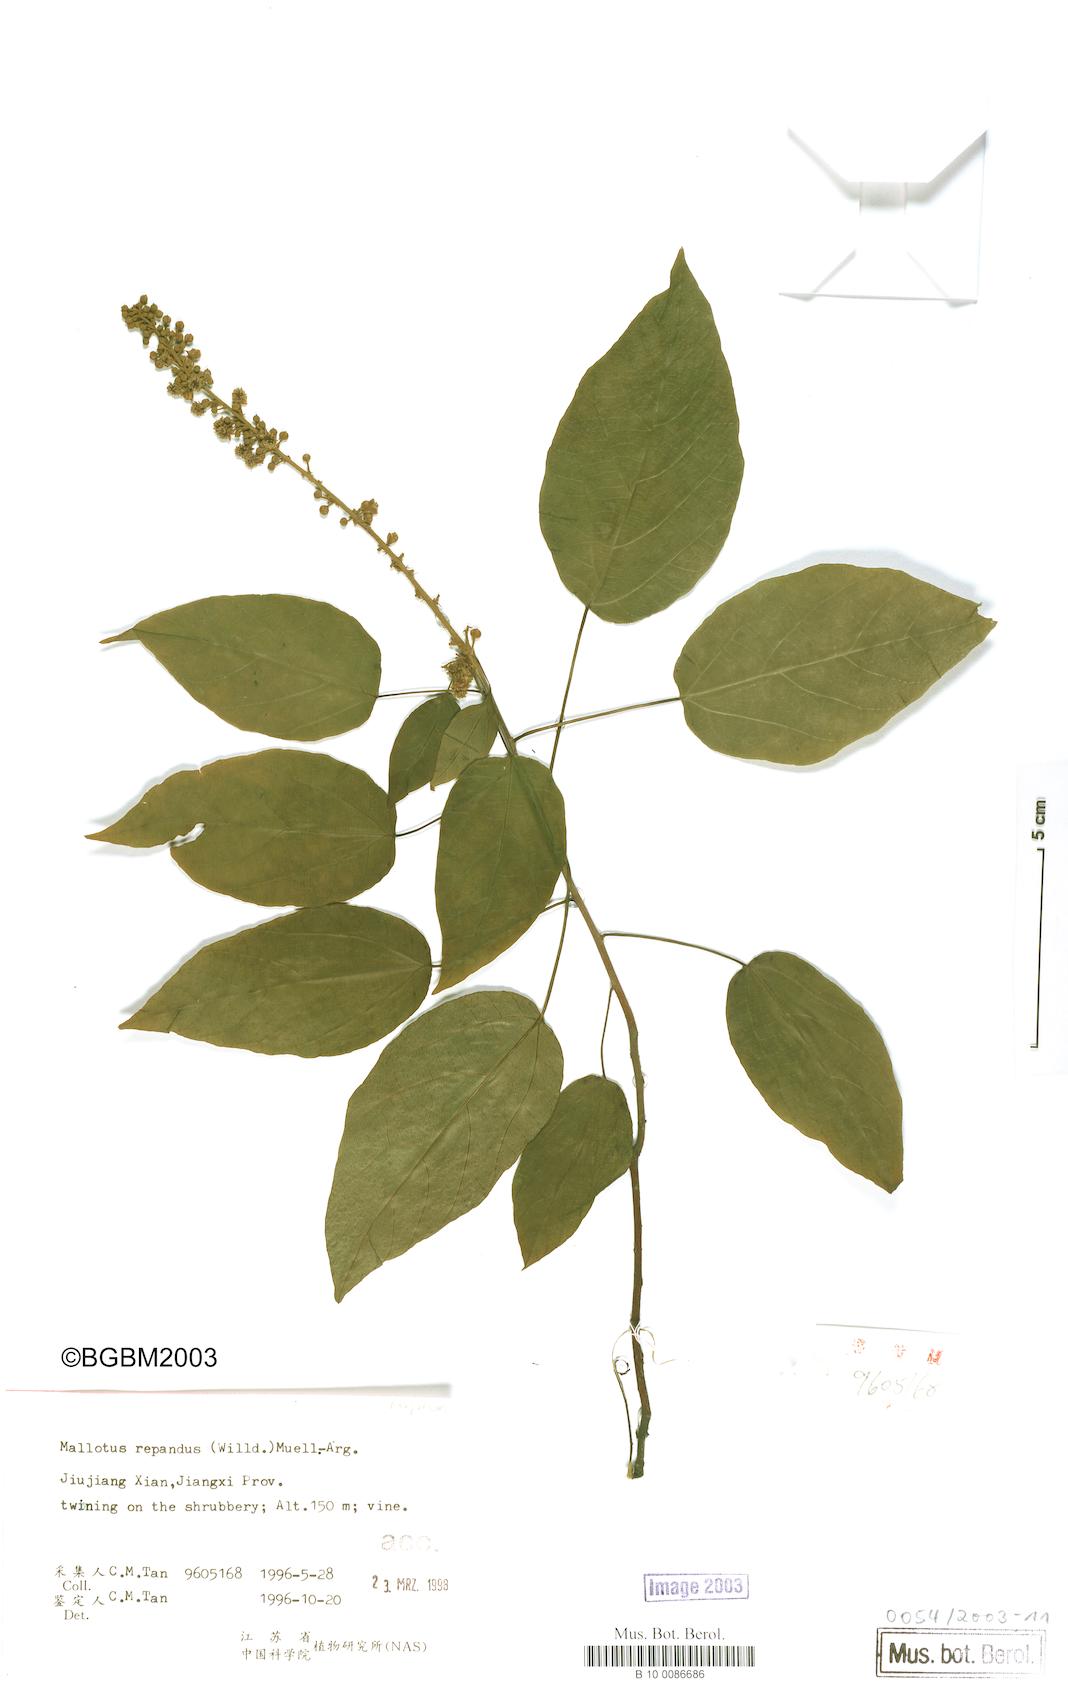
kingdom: Plantae
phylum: Tracheophyta
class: Magnoliopsida
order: Malpighiales
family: Euphorbiaceae
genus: Mallotus
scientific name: Mallotus repandus
